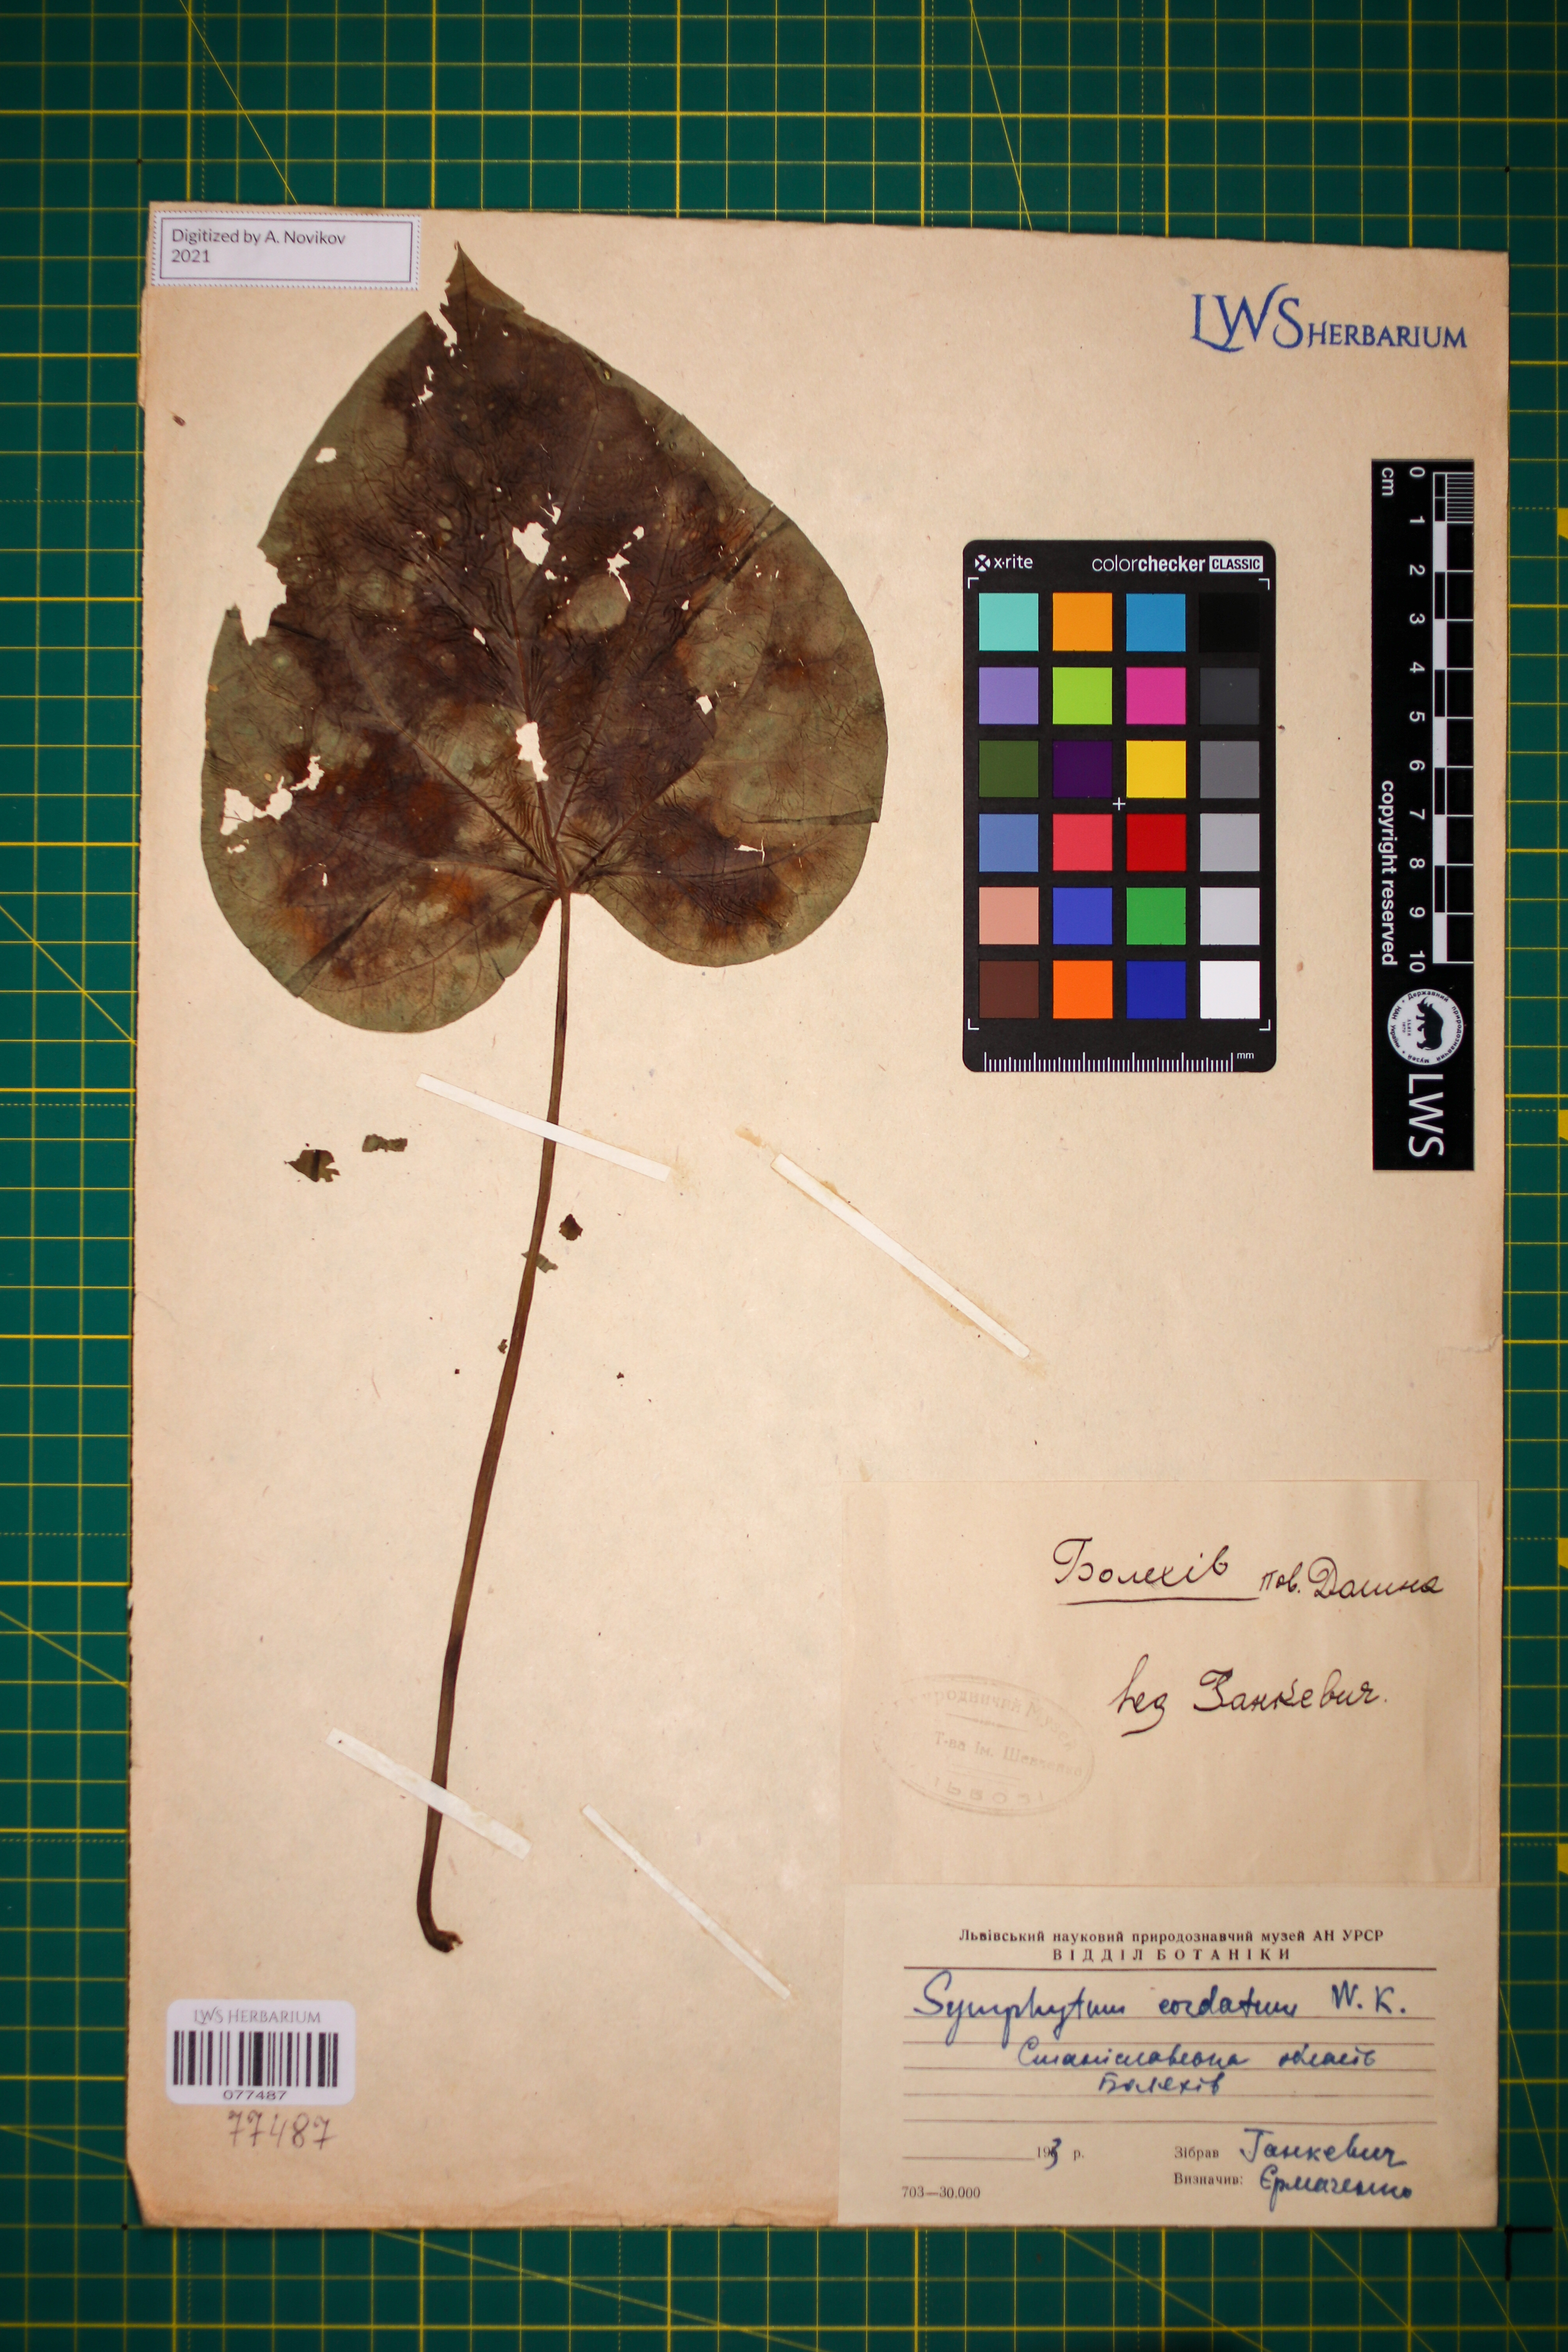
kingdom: Plantae
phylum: Tracheophyta
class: Magnoliopsida
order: Boraginales
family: Boraginaceae
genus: Symphytum
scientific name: Symphytum cordatum
